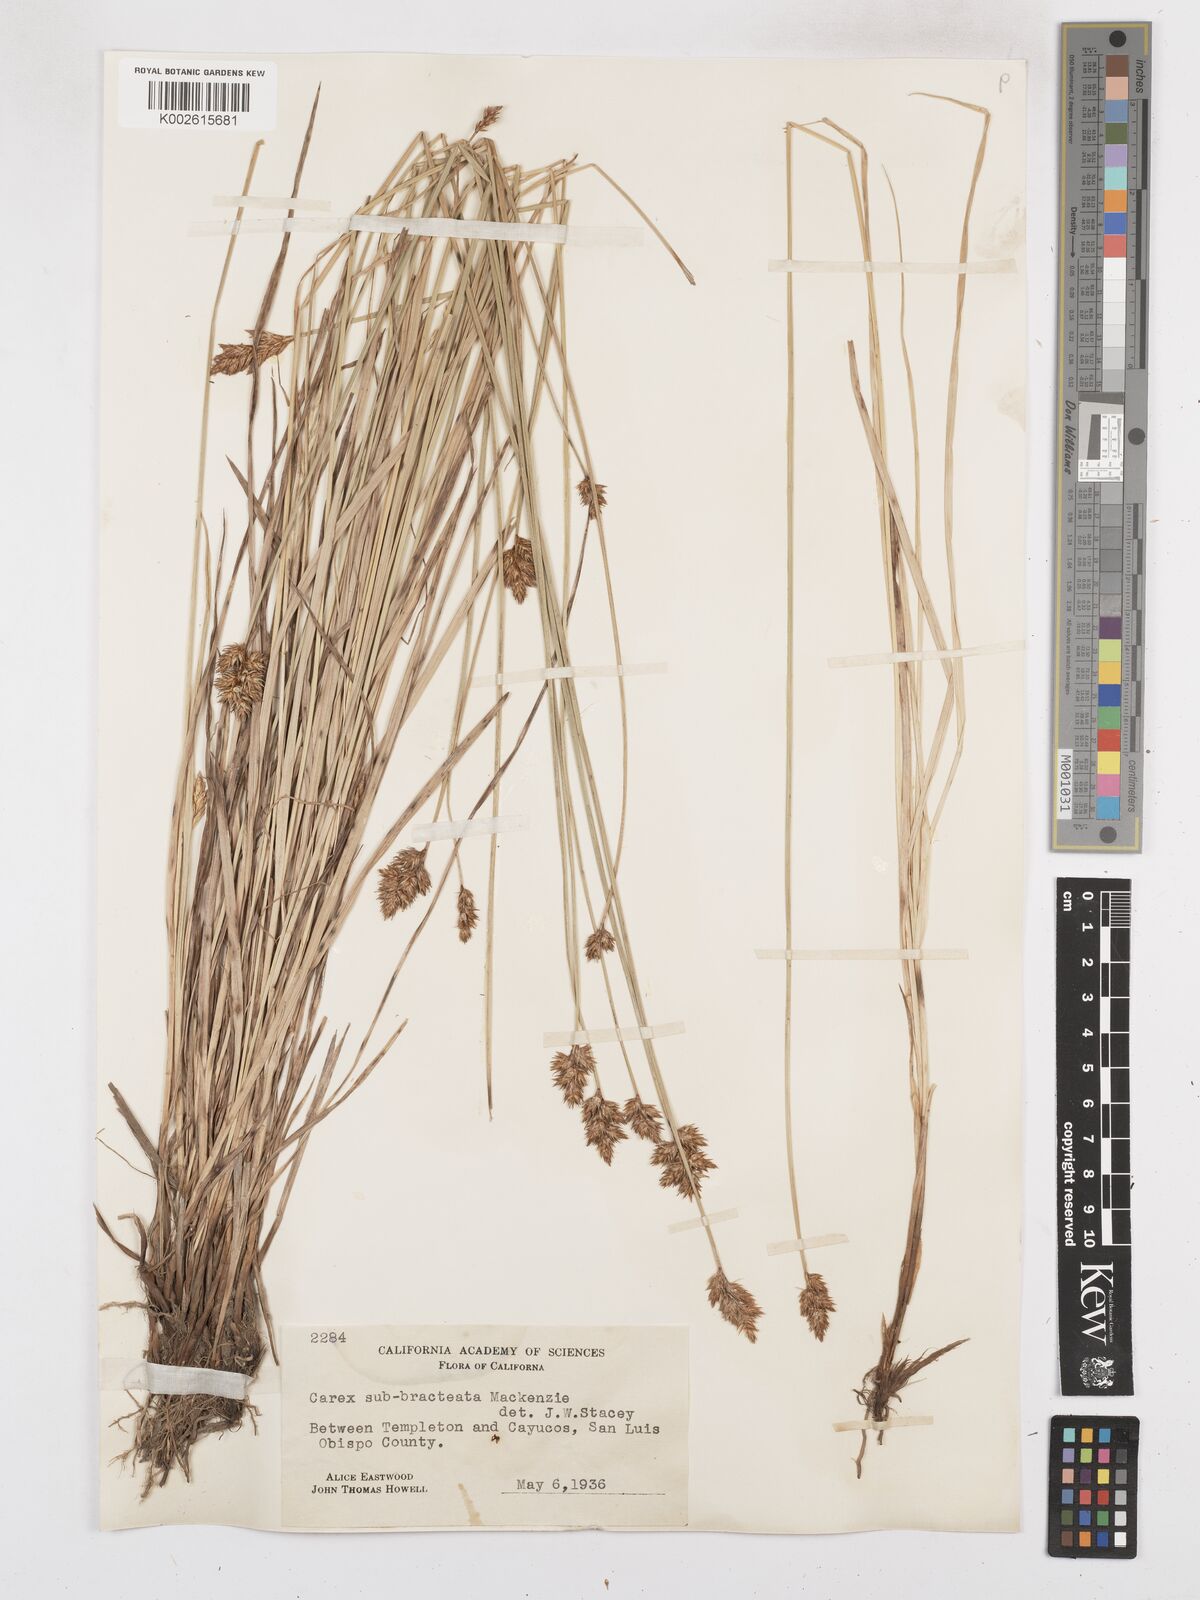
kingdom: Plantae
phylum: Tracheophyta
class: Liliopsida
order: Poales
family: Cyperaceae
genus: Carex
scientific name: Carex subbracteata
